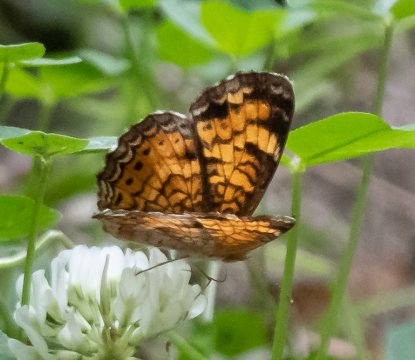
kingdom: Animalia
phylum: Arthropoda
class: Insecta
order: Lepidoptera
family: Nymphalidae
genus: Phyciodes
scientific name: Phyciodes tharos
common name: Pearl Crescent
